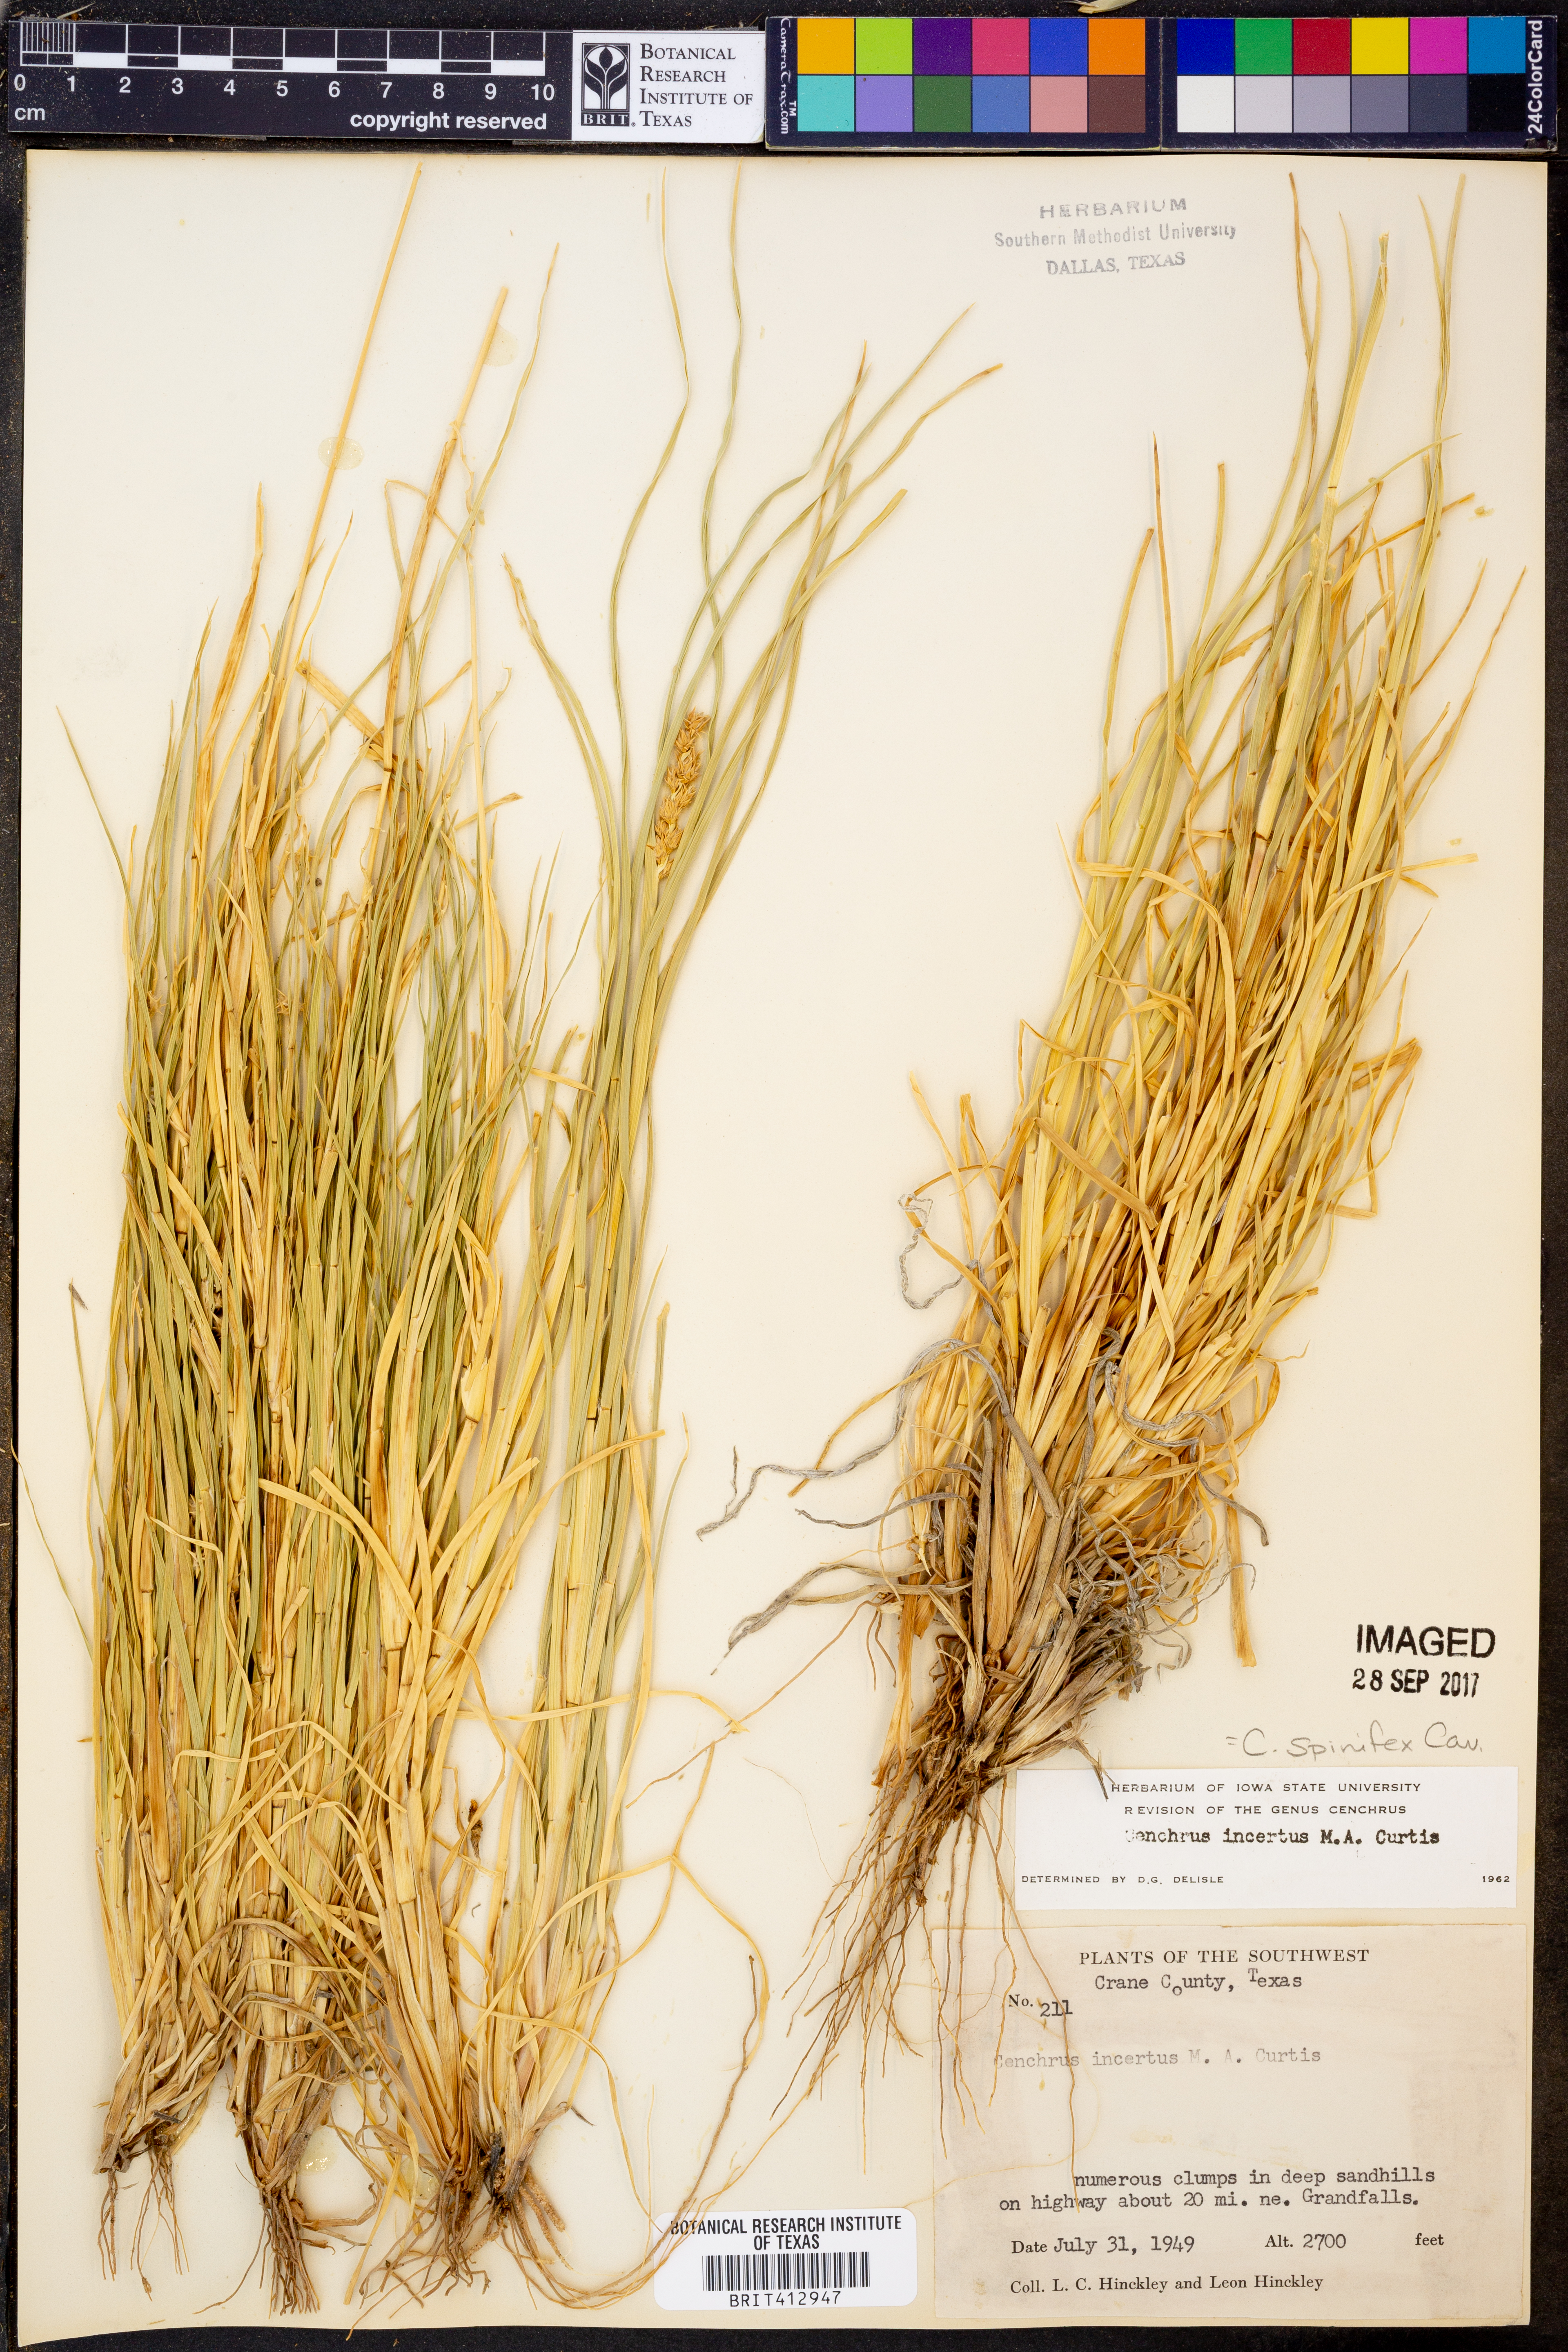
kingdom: Plantae
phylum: Tracheophyta
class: Liliopsida
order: Poales
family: Poaceae
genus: Cenchrus
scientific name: Cenchrus spinifex
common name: Coast sandbur
